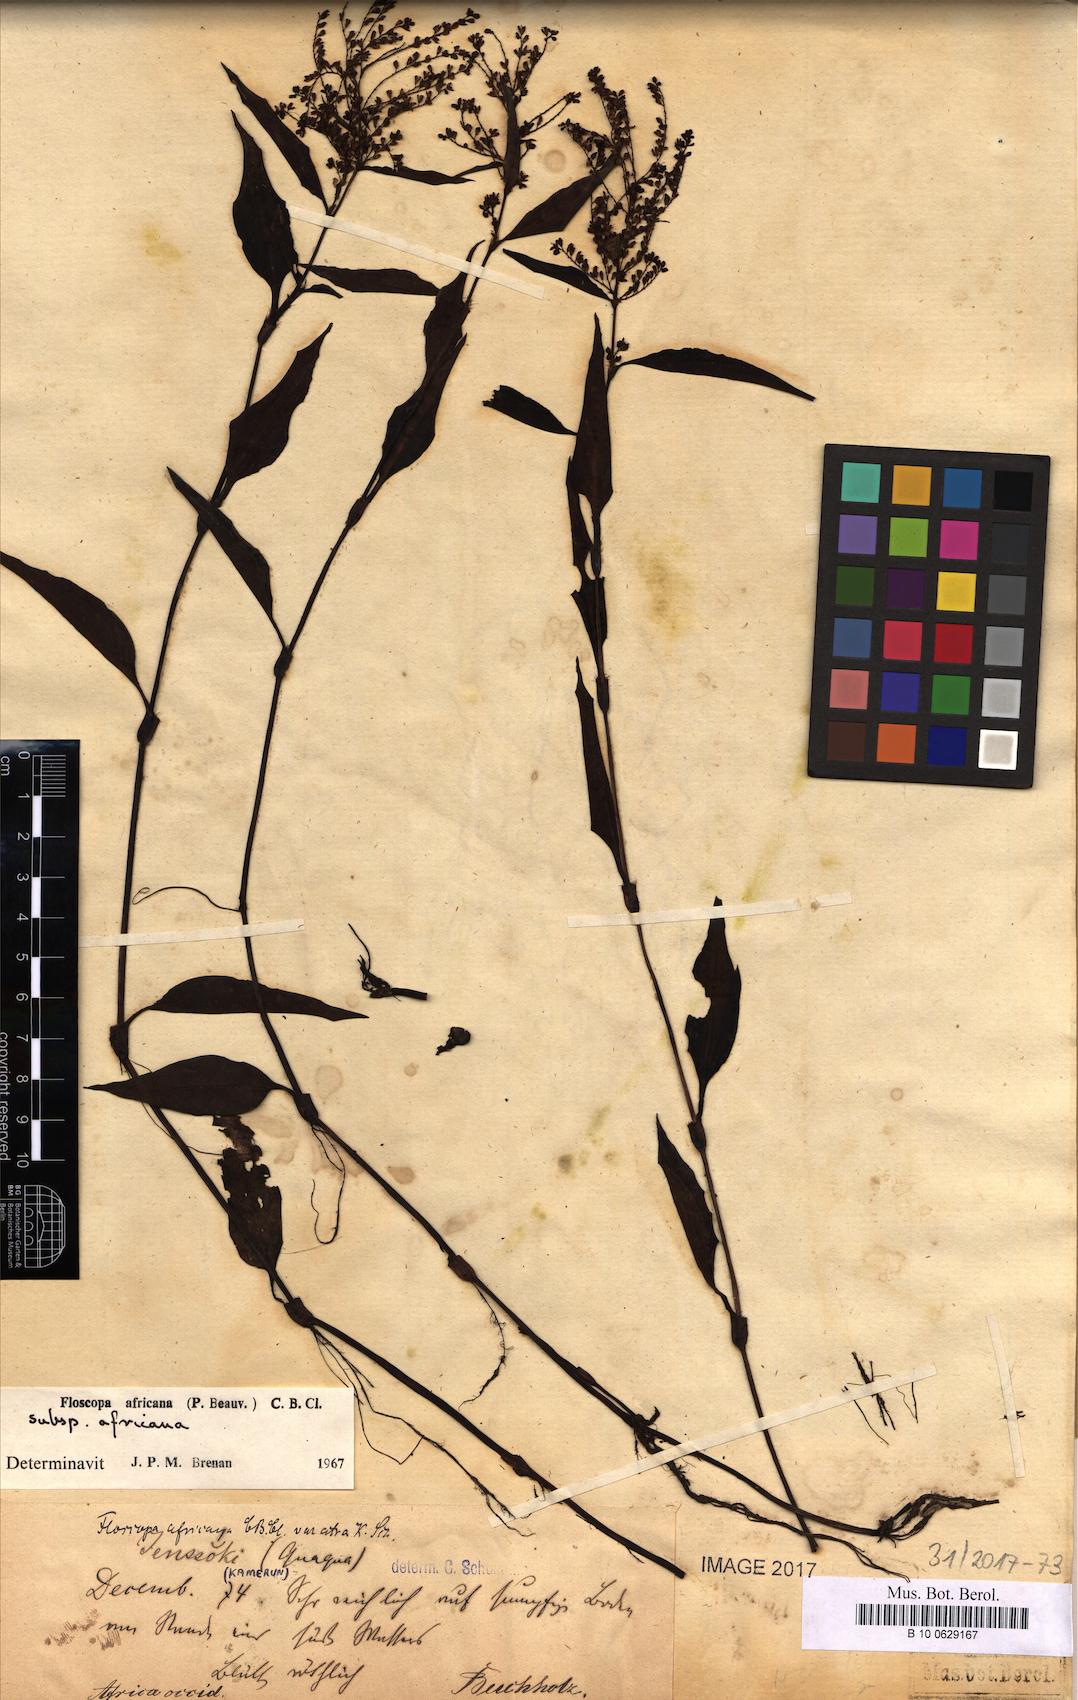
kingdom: Plantae
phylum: Tracheophyta
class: Liliopsida
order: Commelinales
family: Commelinaceae
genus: Floscopa
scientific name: Floscopa africana
